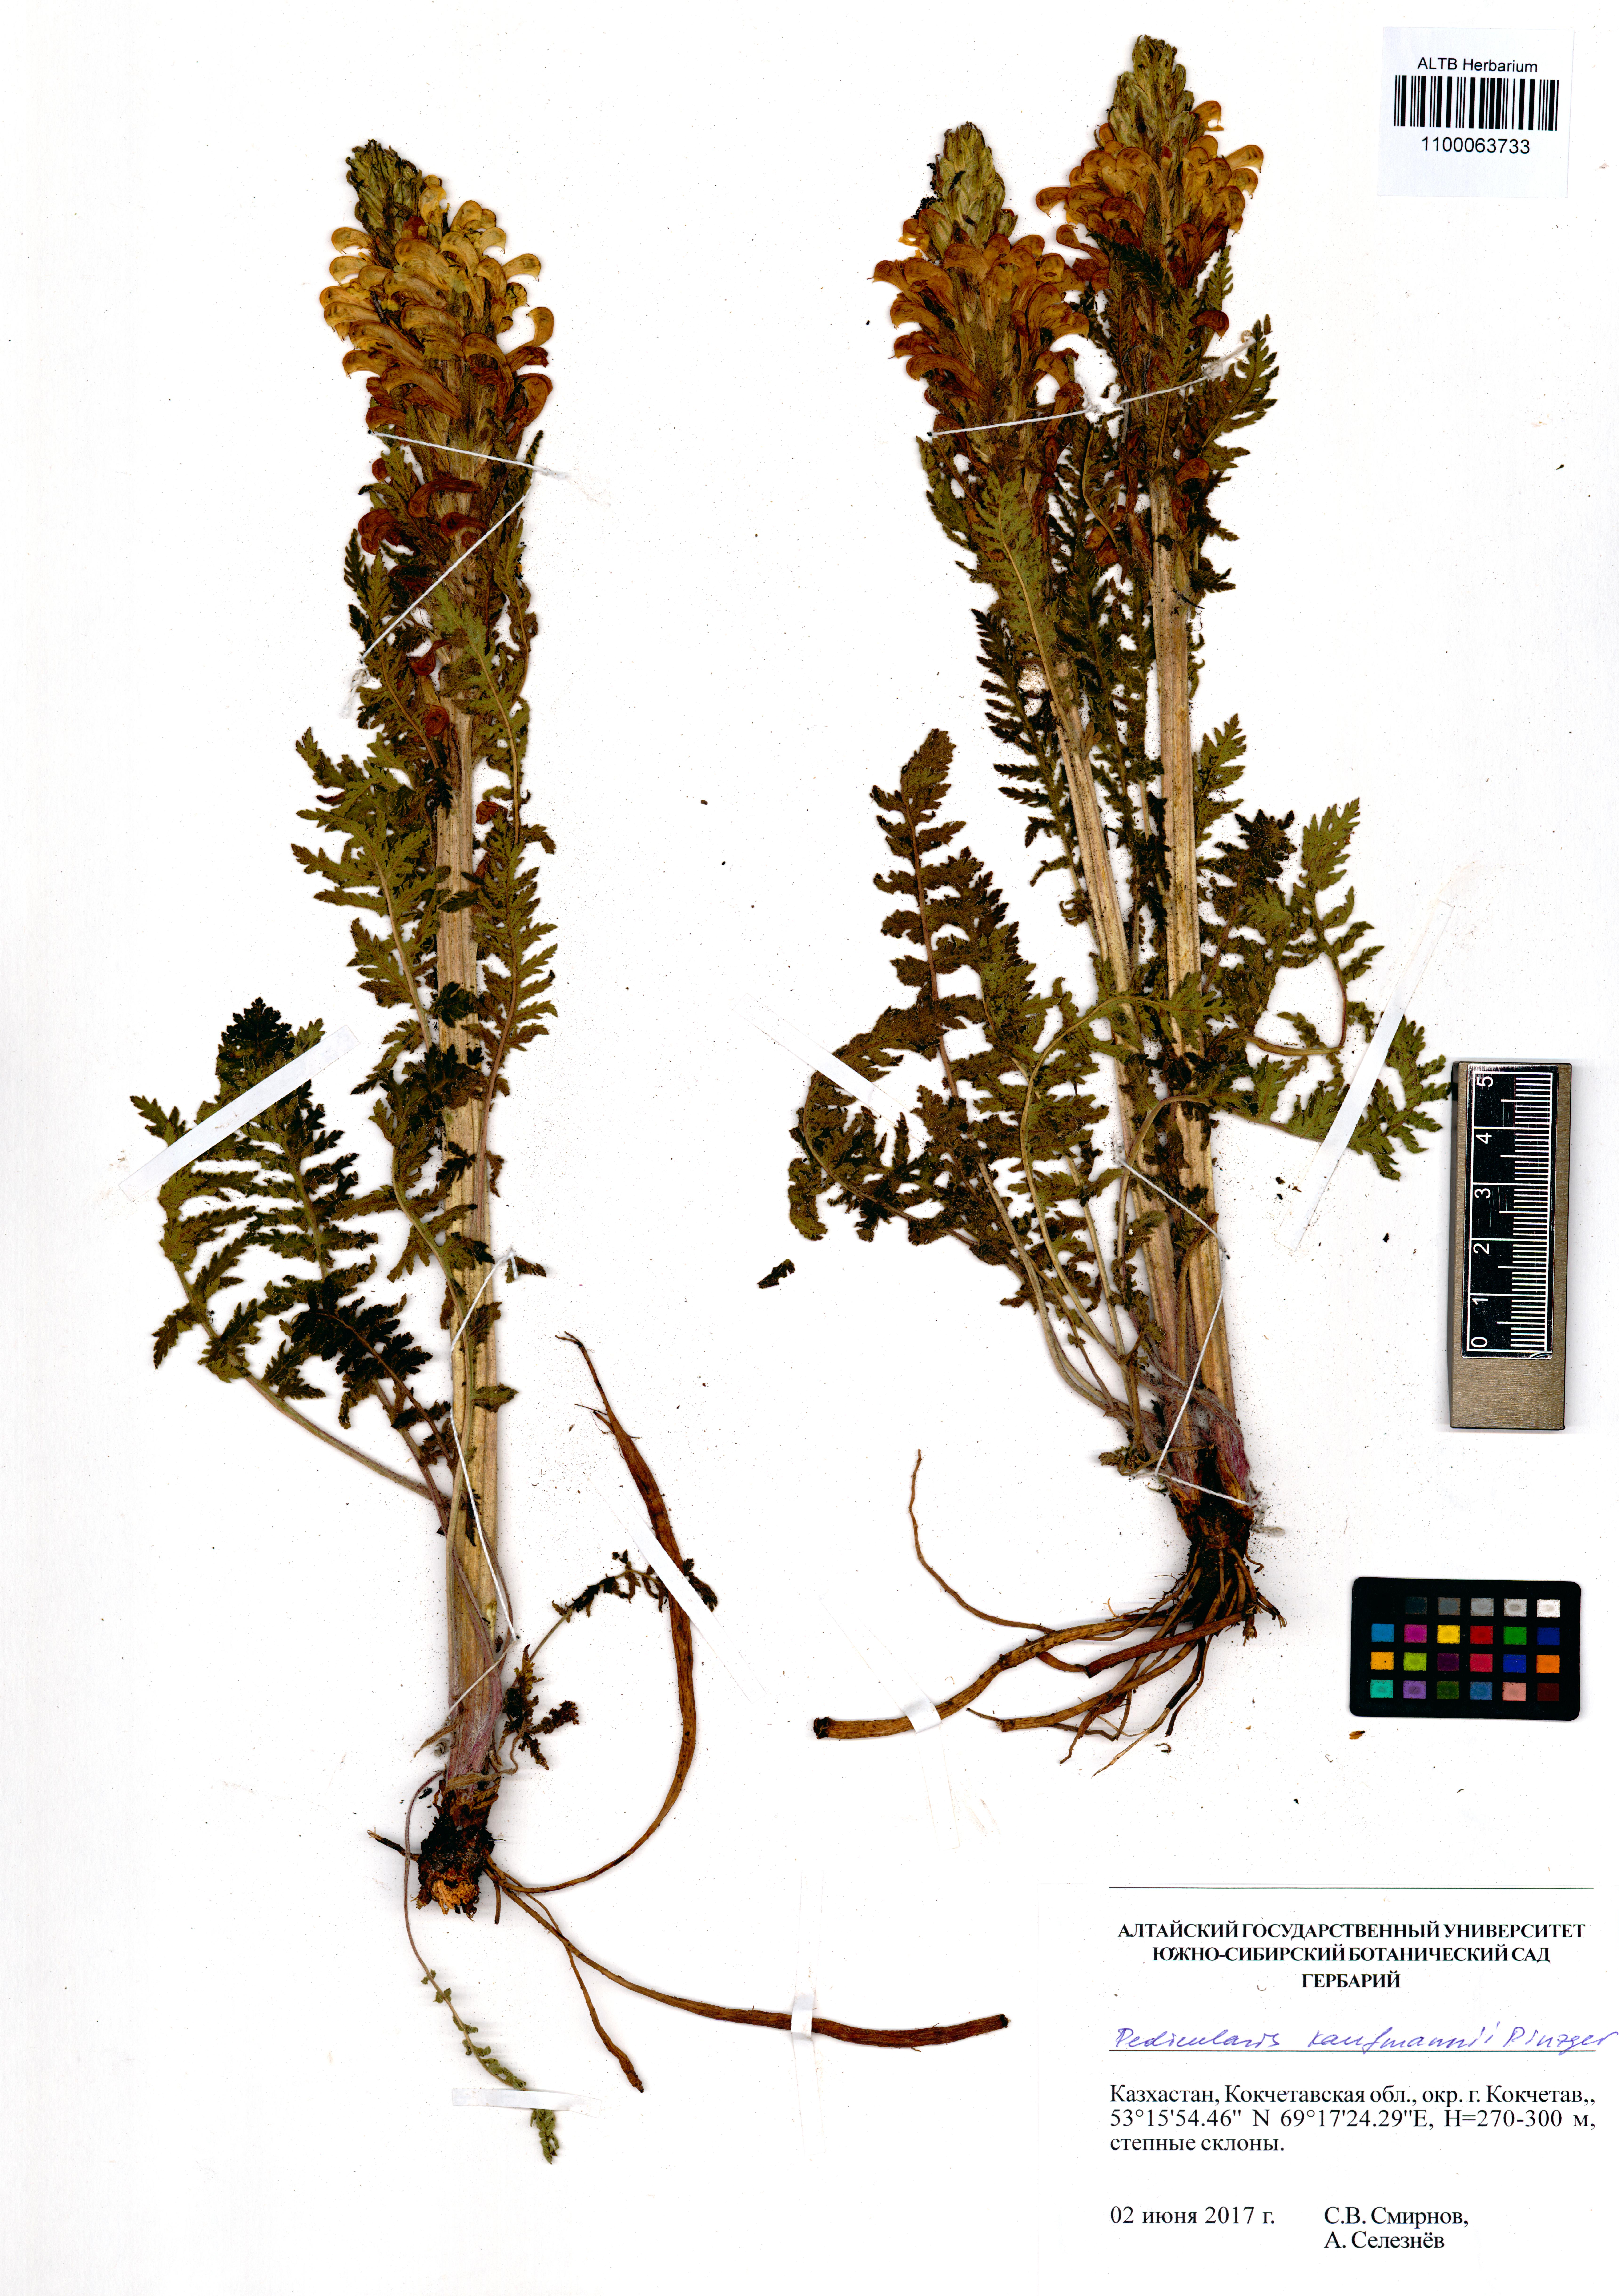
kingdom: Plantae
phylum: Tracheophyta
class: Magnoliopsida
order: Lamiales
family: Orobanchaceae
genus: Pedicularis
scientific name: Pedicularis kaufmannii
